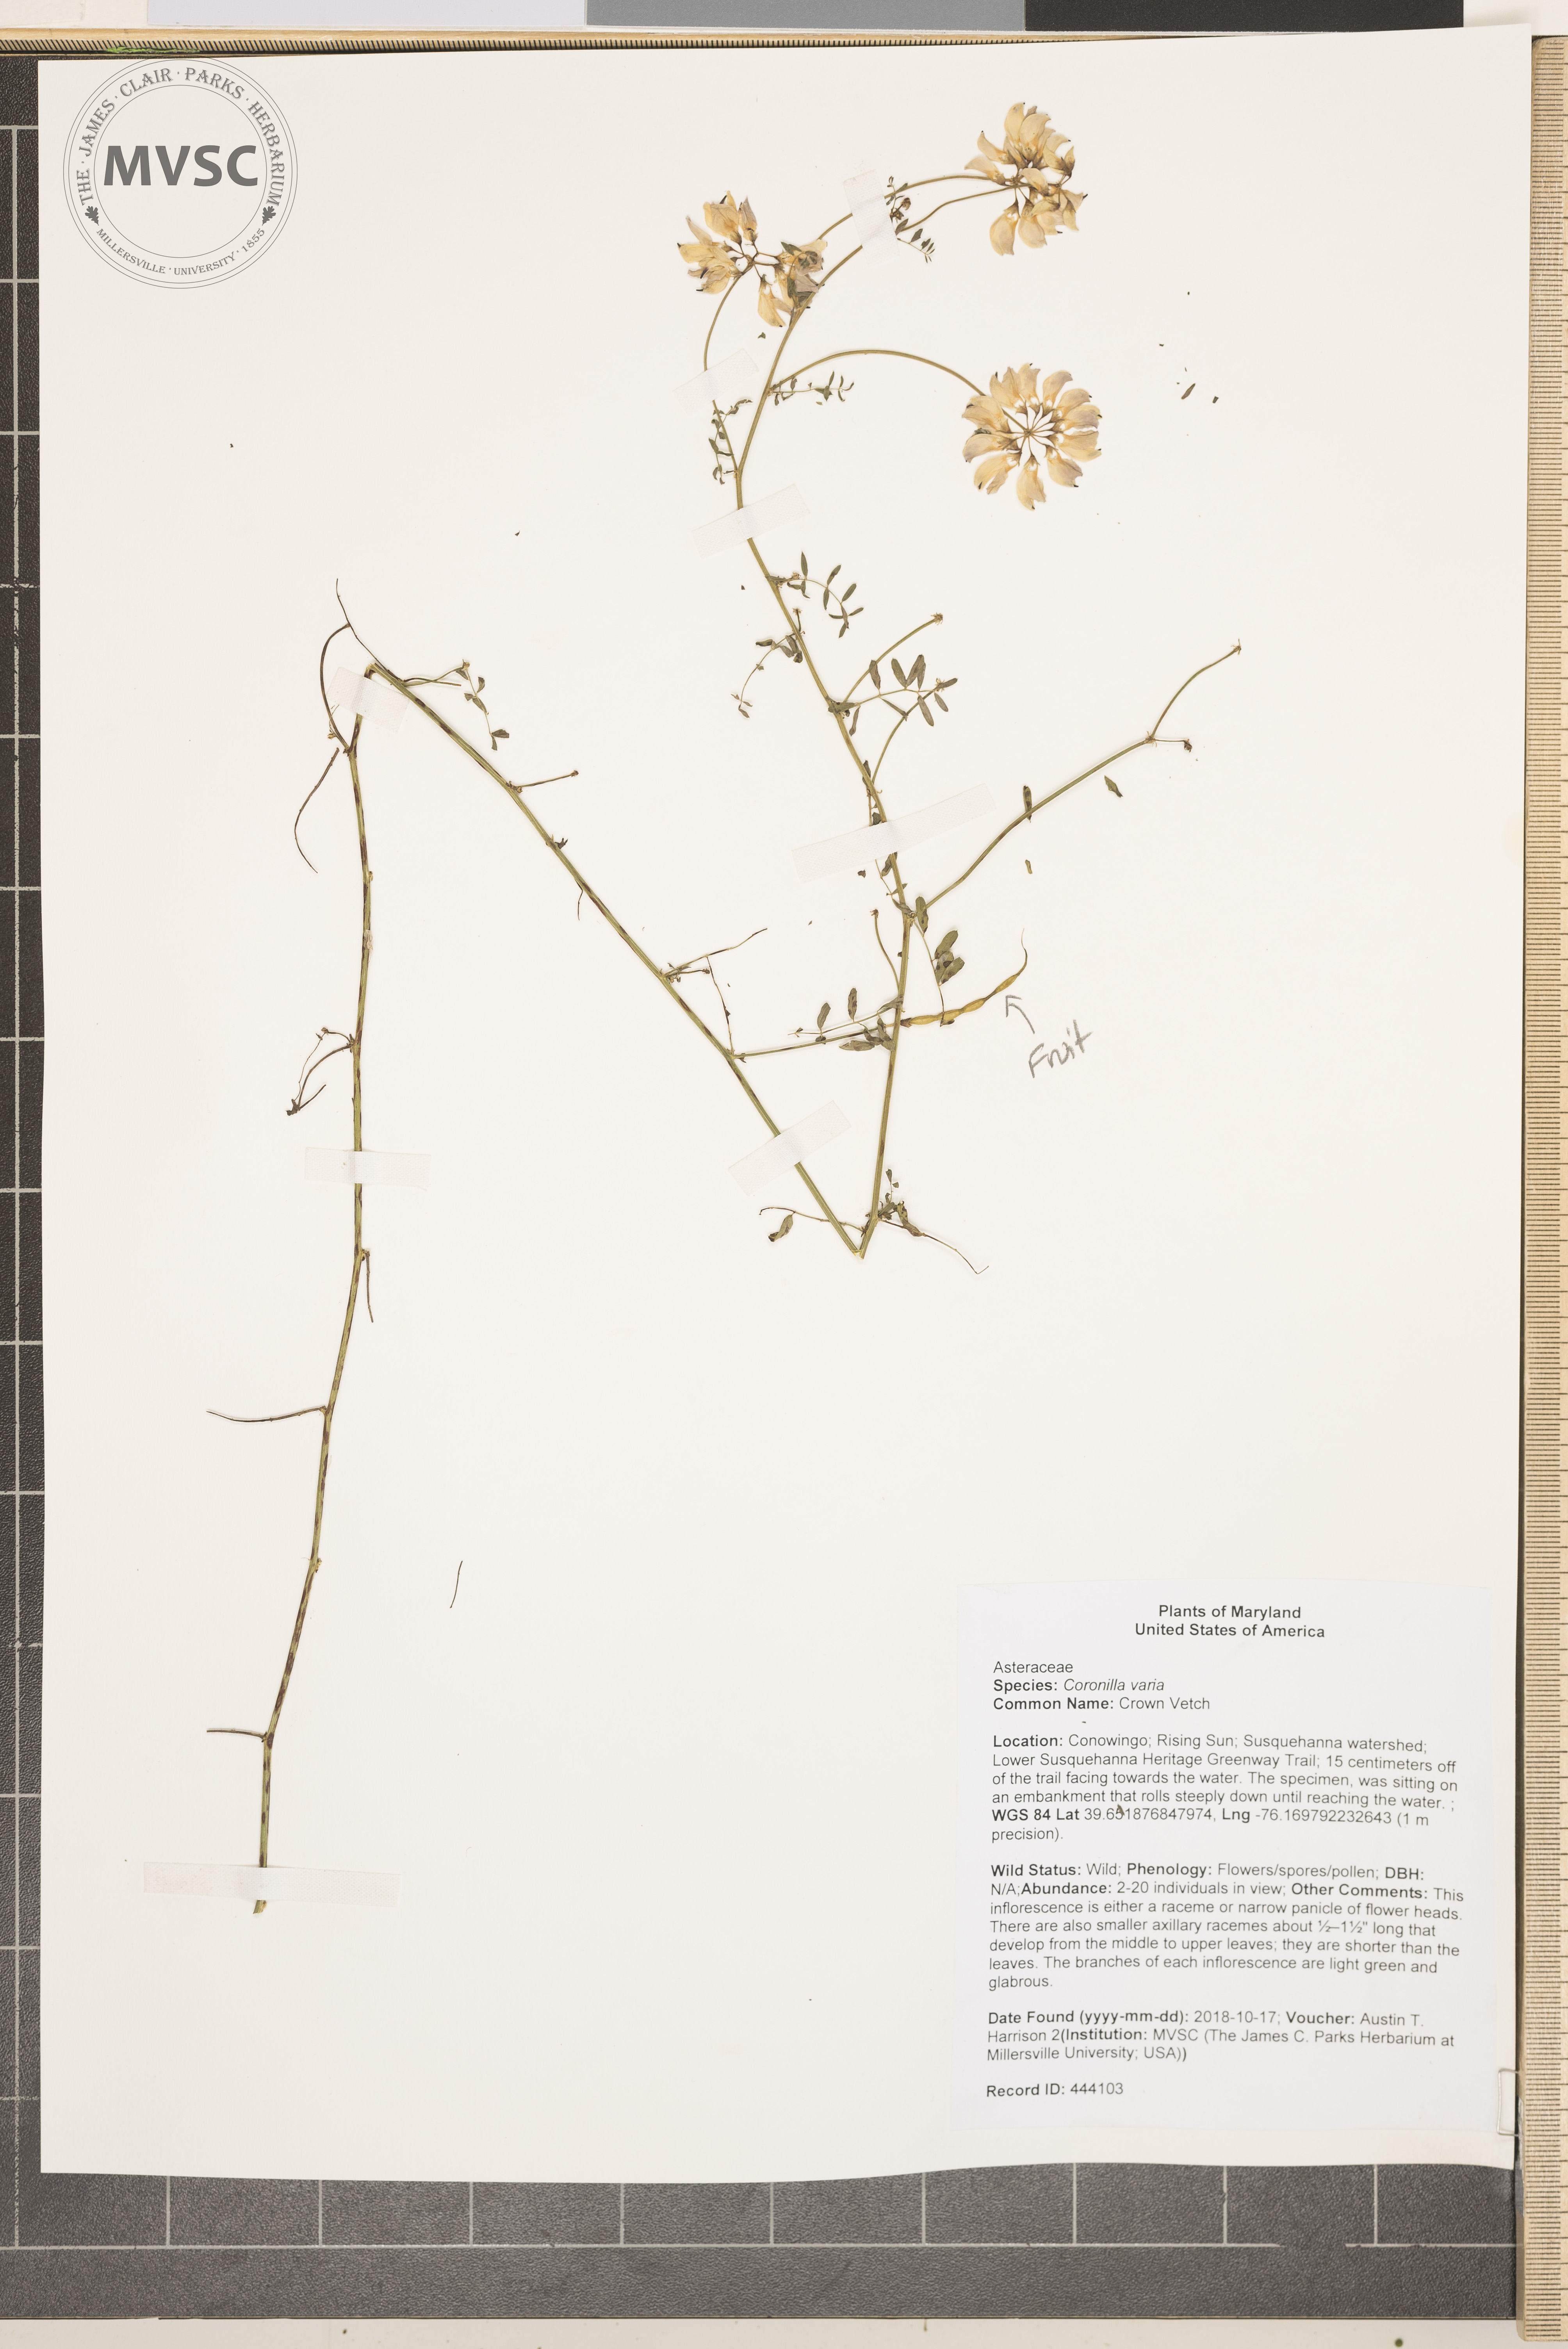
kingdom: Plantae
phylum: Tracheophyta
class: Magnoliopsida
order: Fabales
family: Fabaceae
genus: Coronilla
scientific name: Coronilla varia
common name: Crown Vetch
